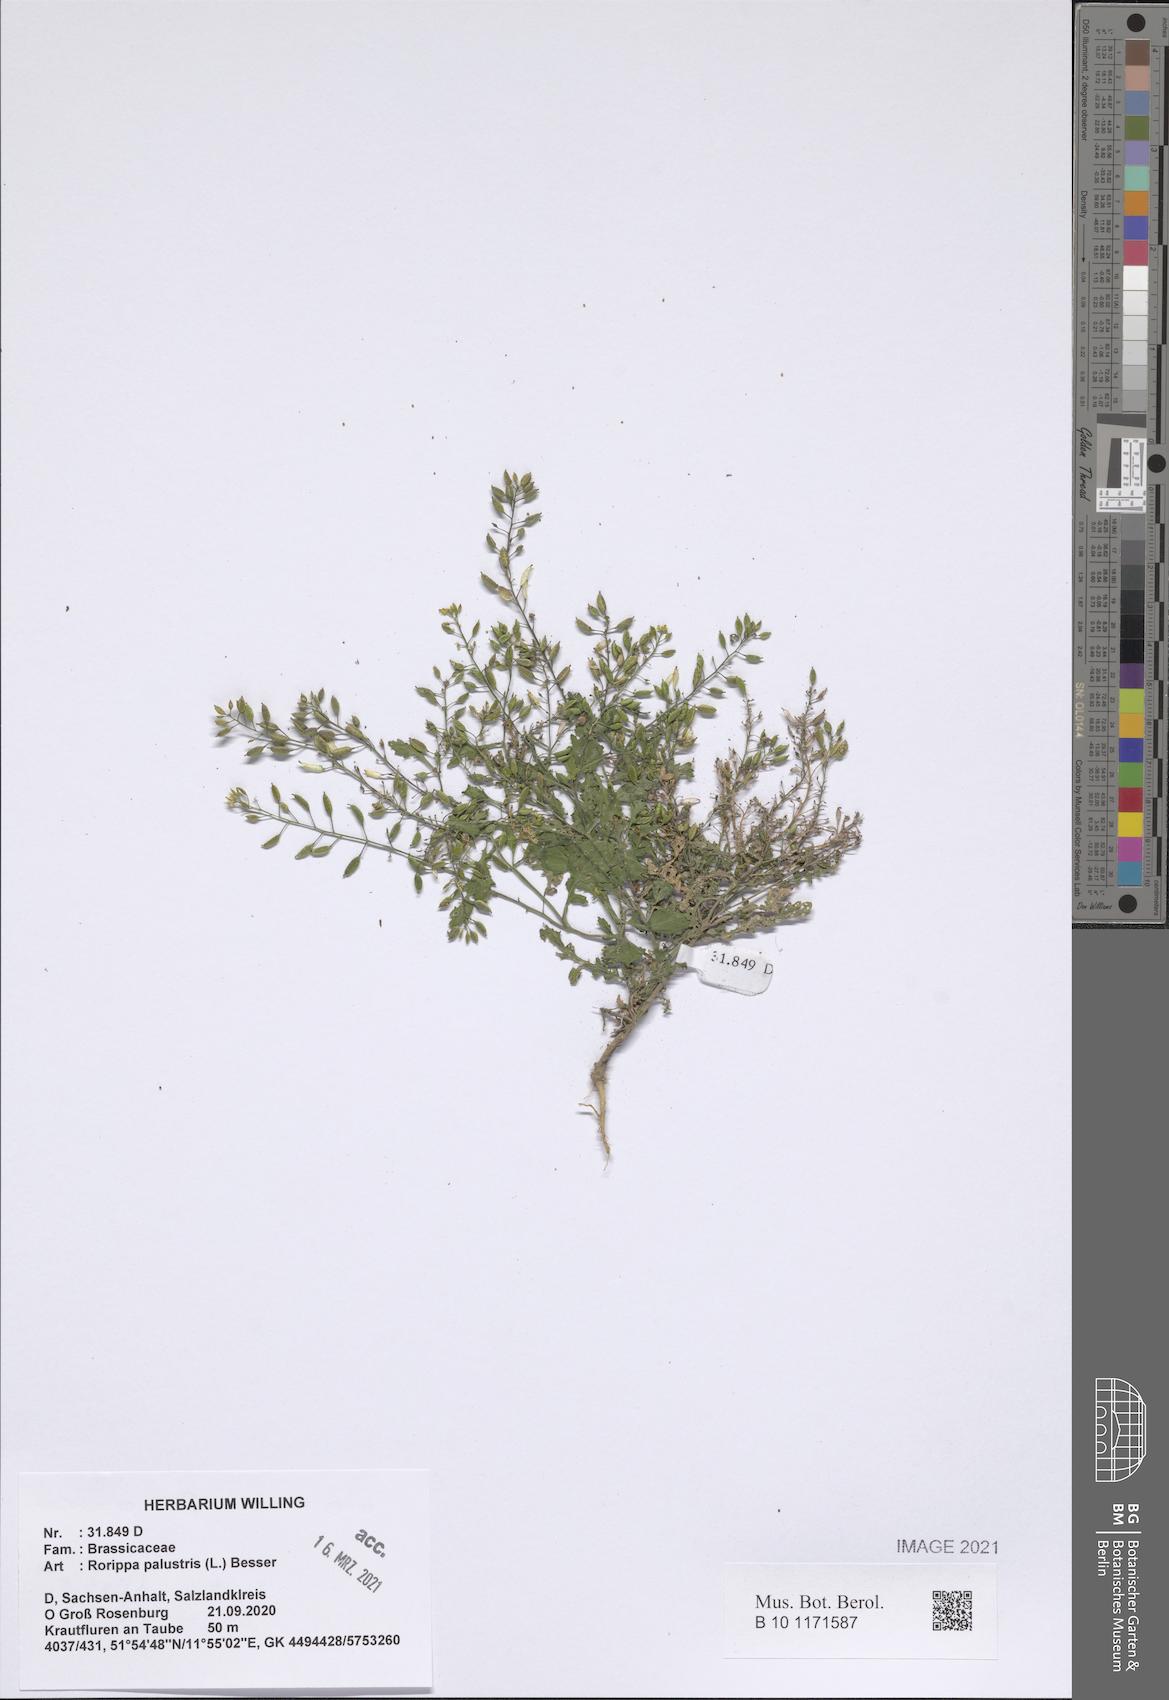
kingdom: Plantae
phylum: Tracheophyta
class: Magnoliopsida
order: Brassicales
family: Brassicaceae
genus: Rorippa
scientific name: Rorippa palustris
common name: Marsh yellow-cress
